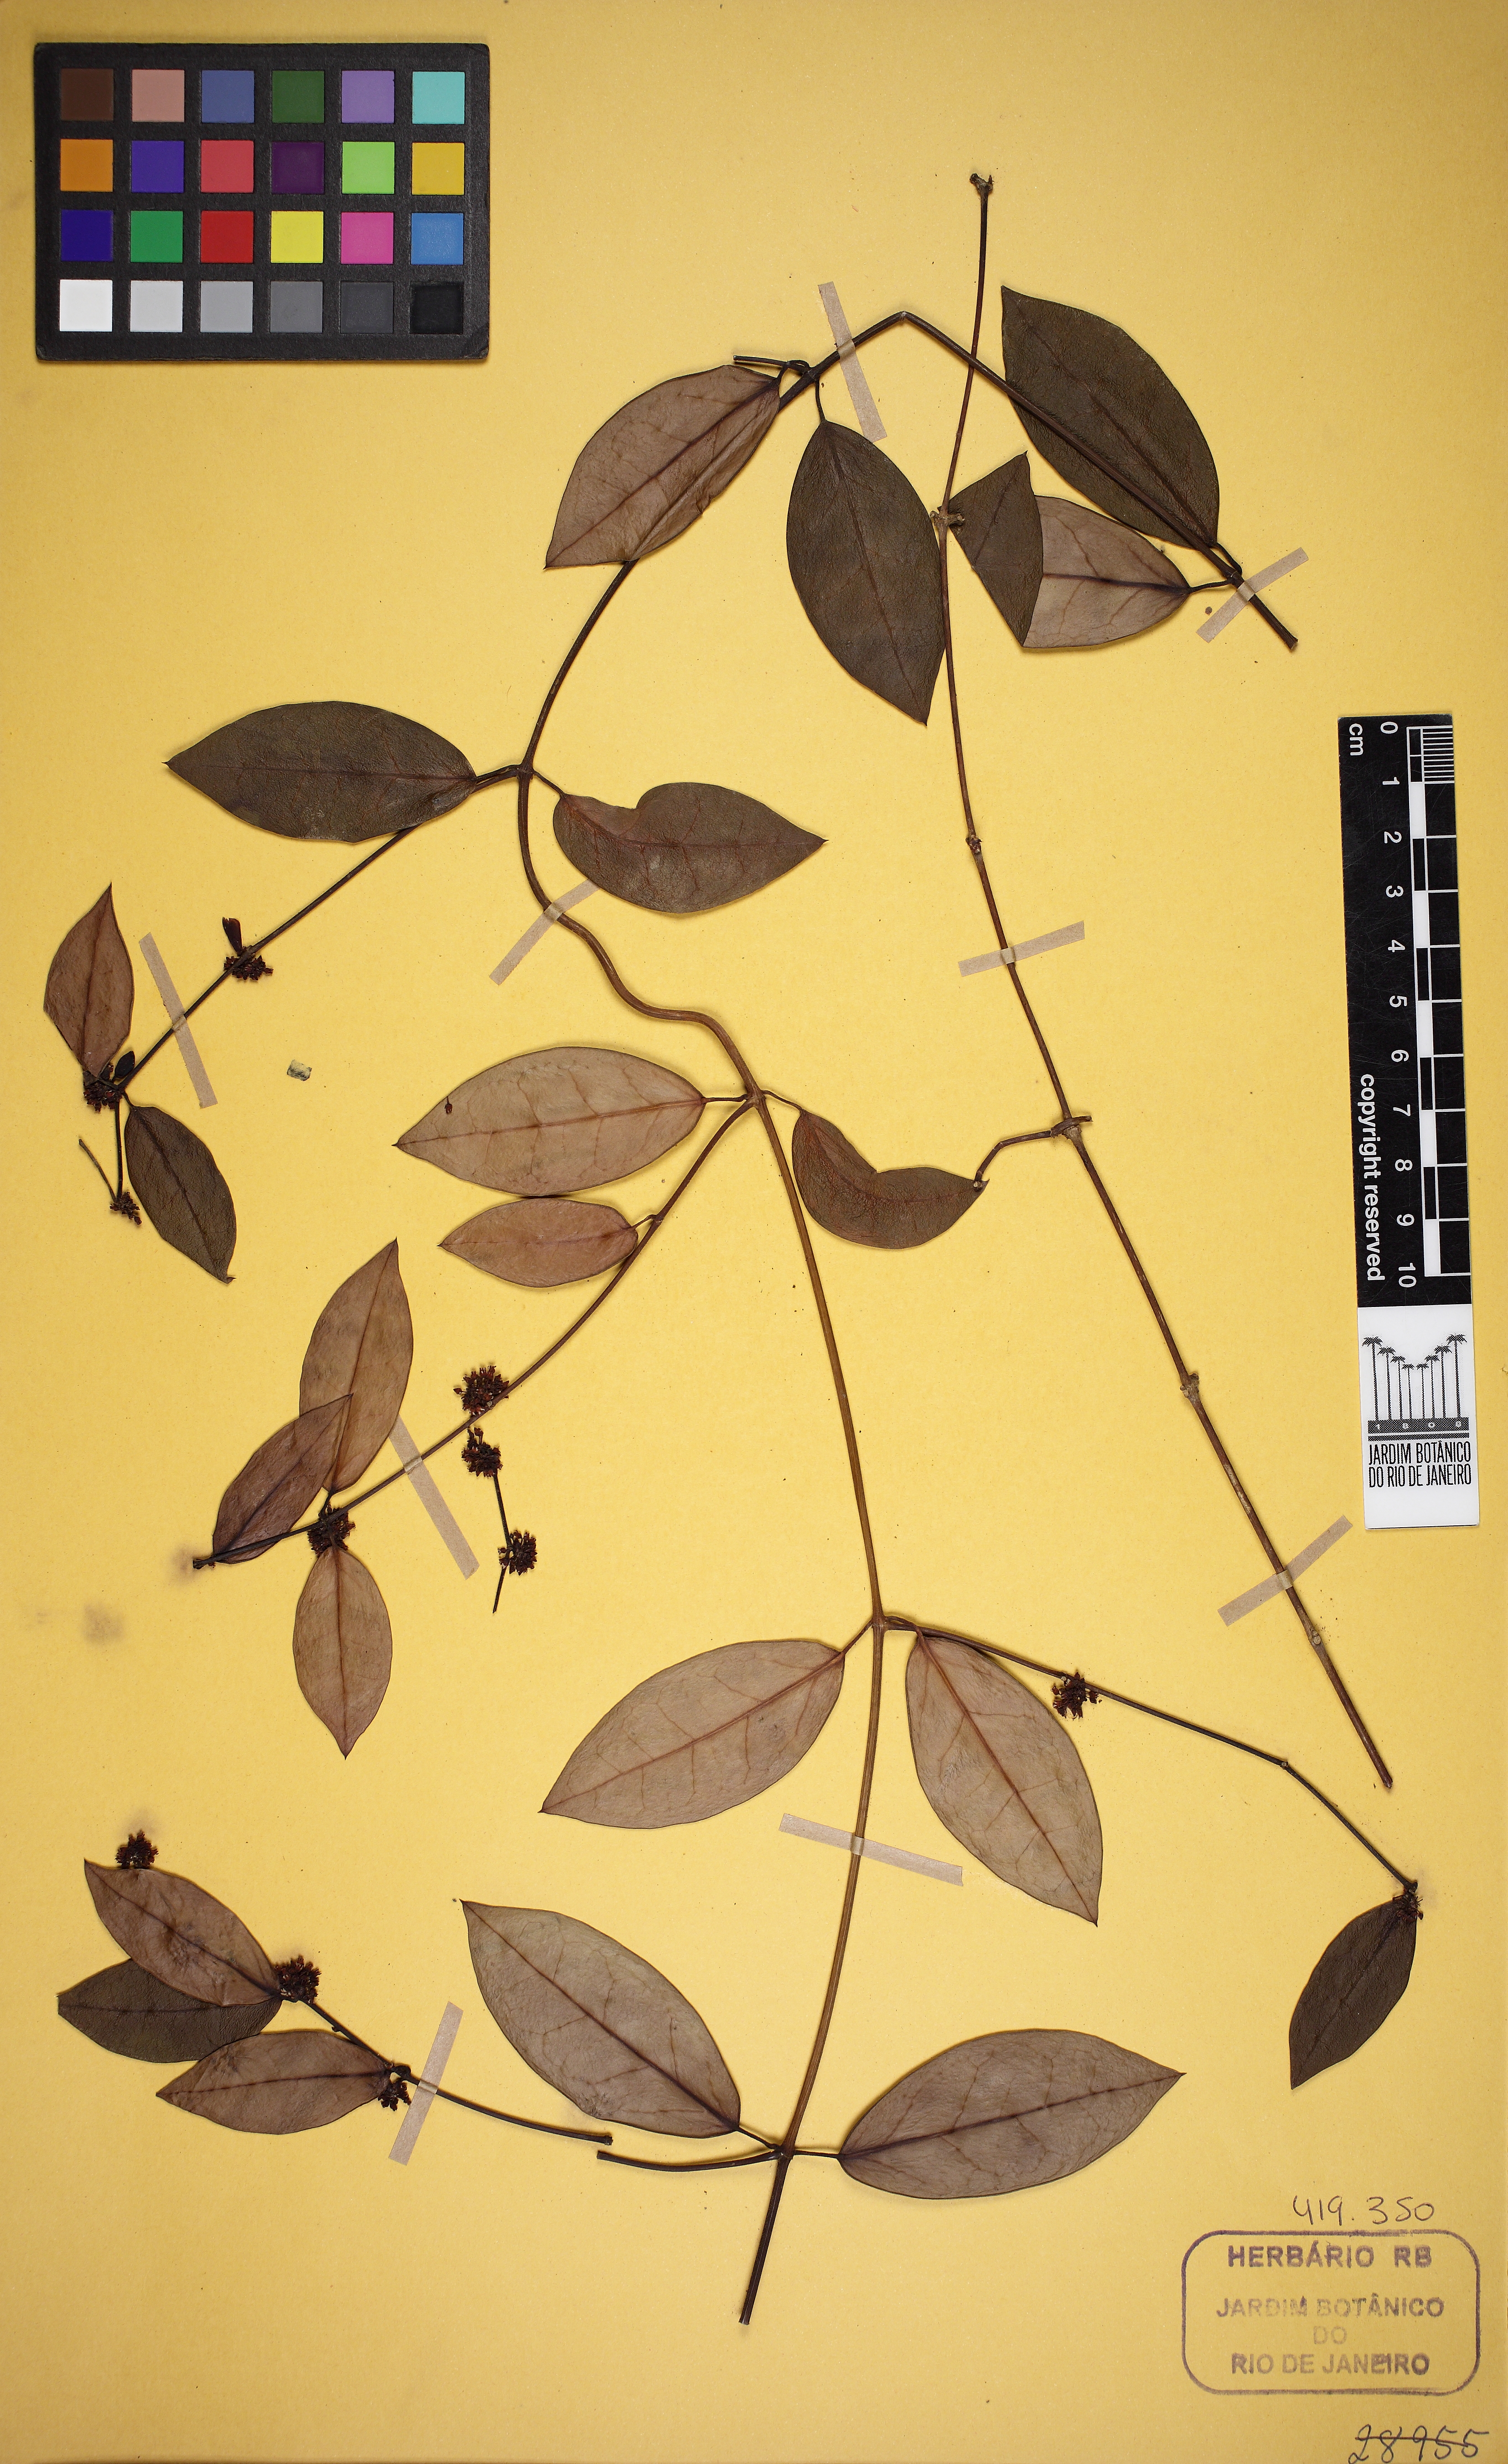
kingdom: Plantae
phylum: Tracheophyta
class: Magnoliopsida
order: Gentianales
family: Apocynaceae
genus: Tassadia
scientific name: Tassadia burchelii
